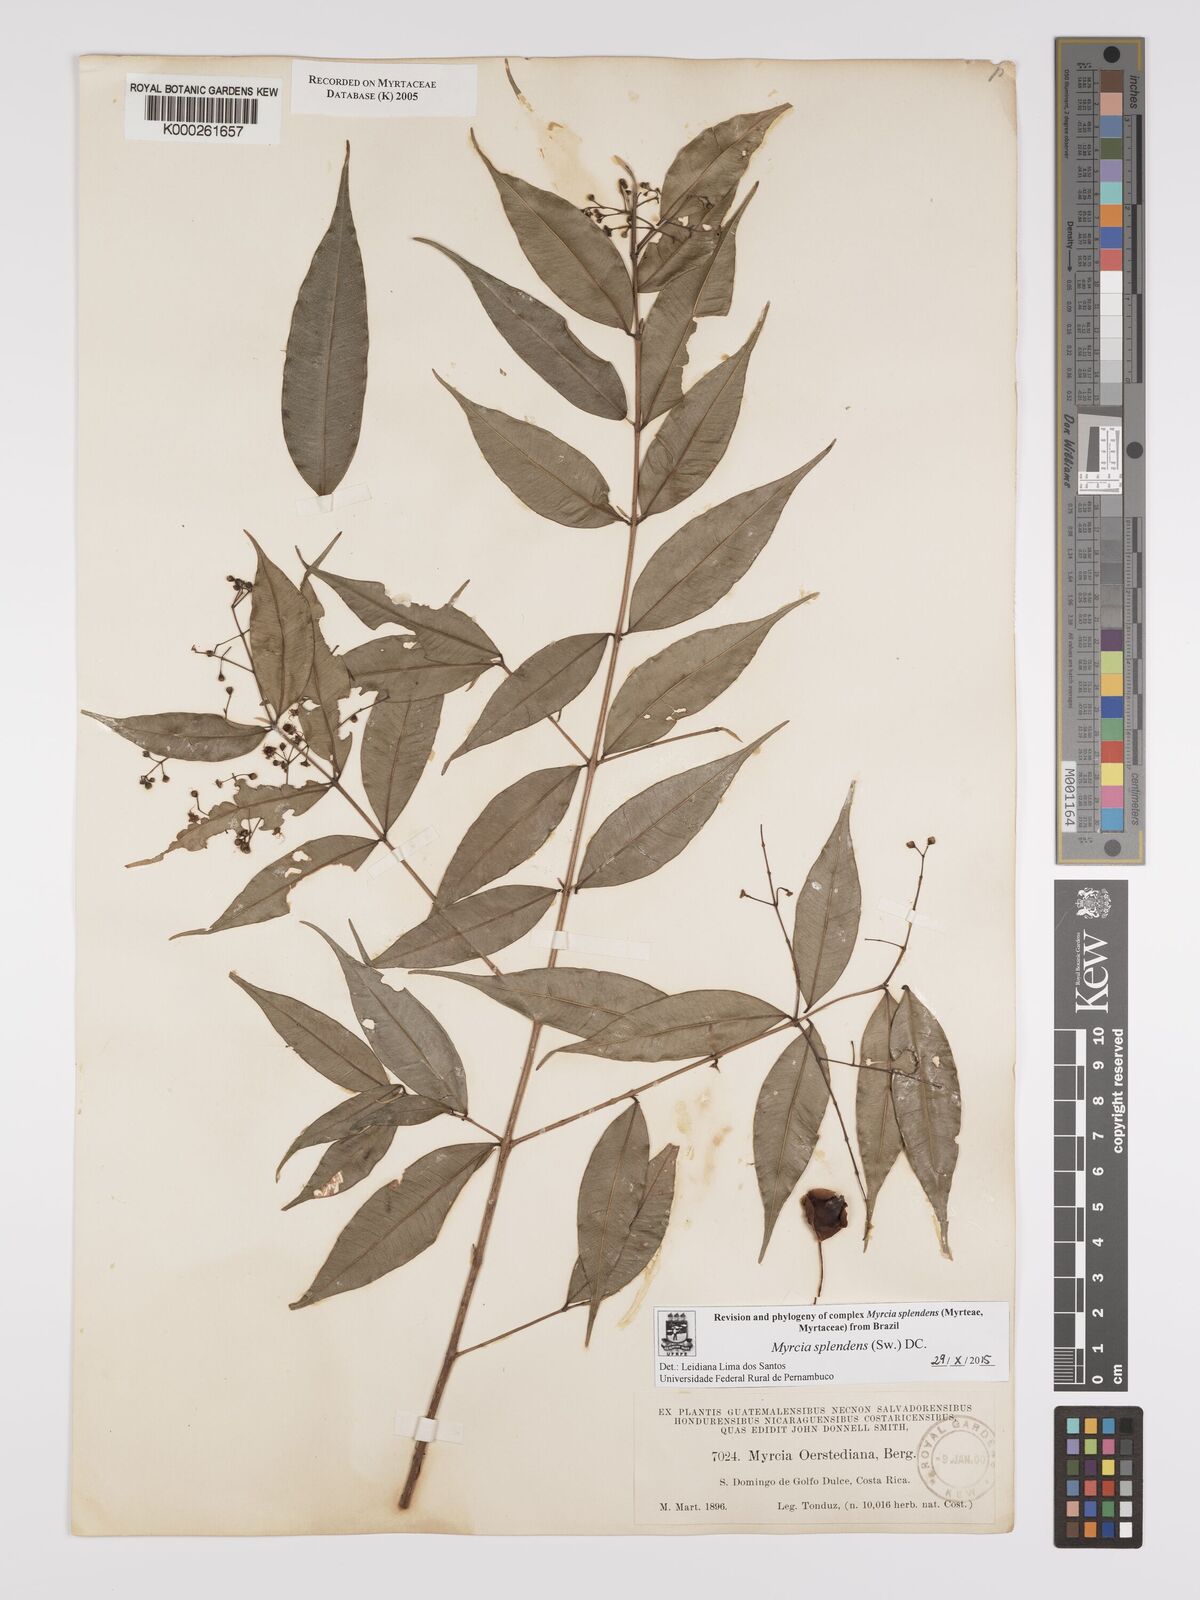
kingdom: Plantae
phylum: Tracheophyta
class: Magnoliopsida
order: Myrtales
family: Myrtaceae
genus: Myrcia
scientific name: Myrcia splendens
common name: Surinam cherry
